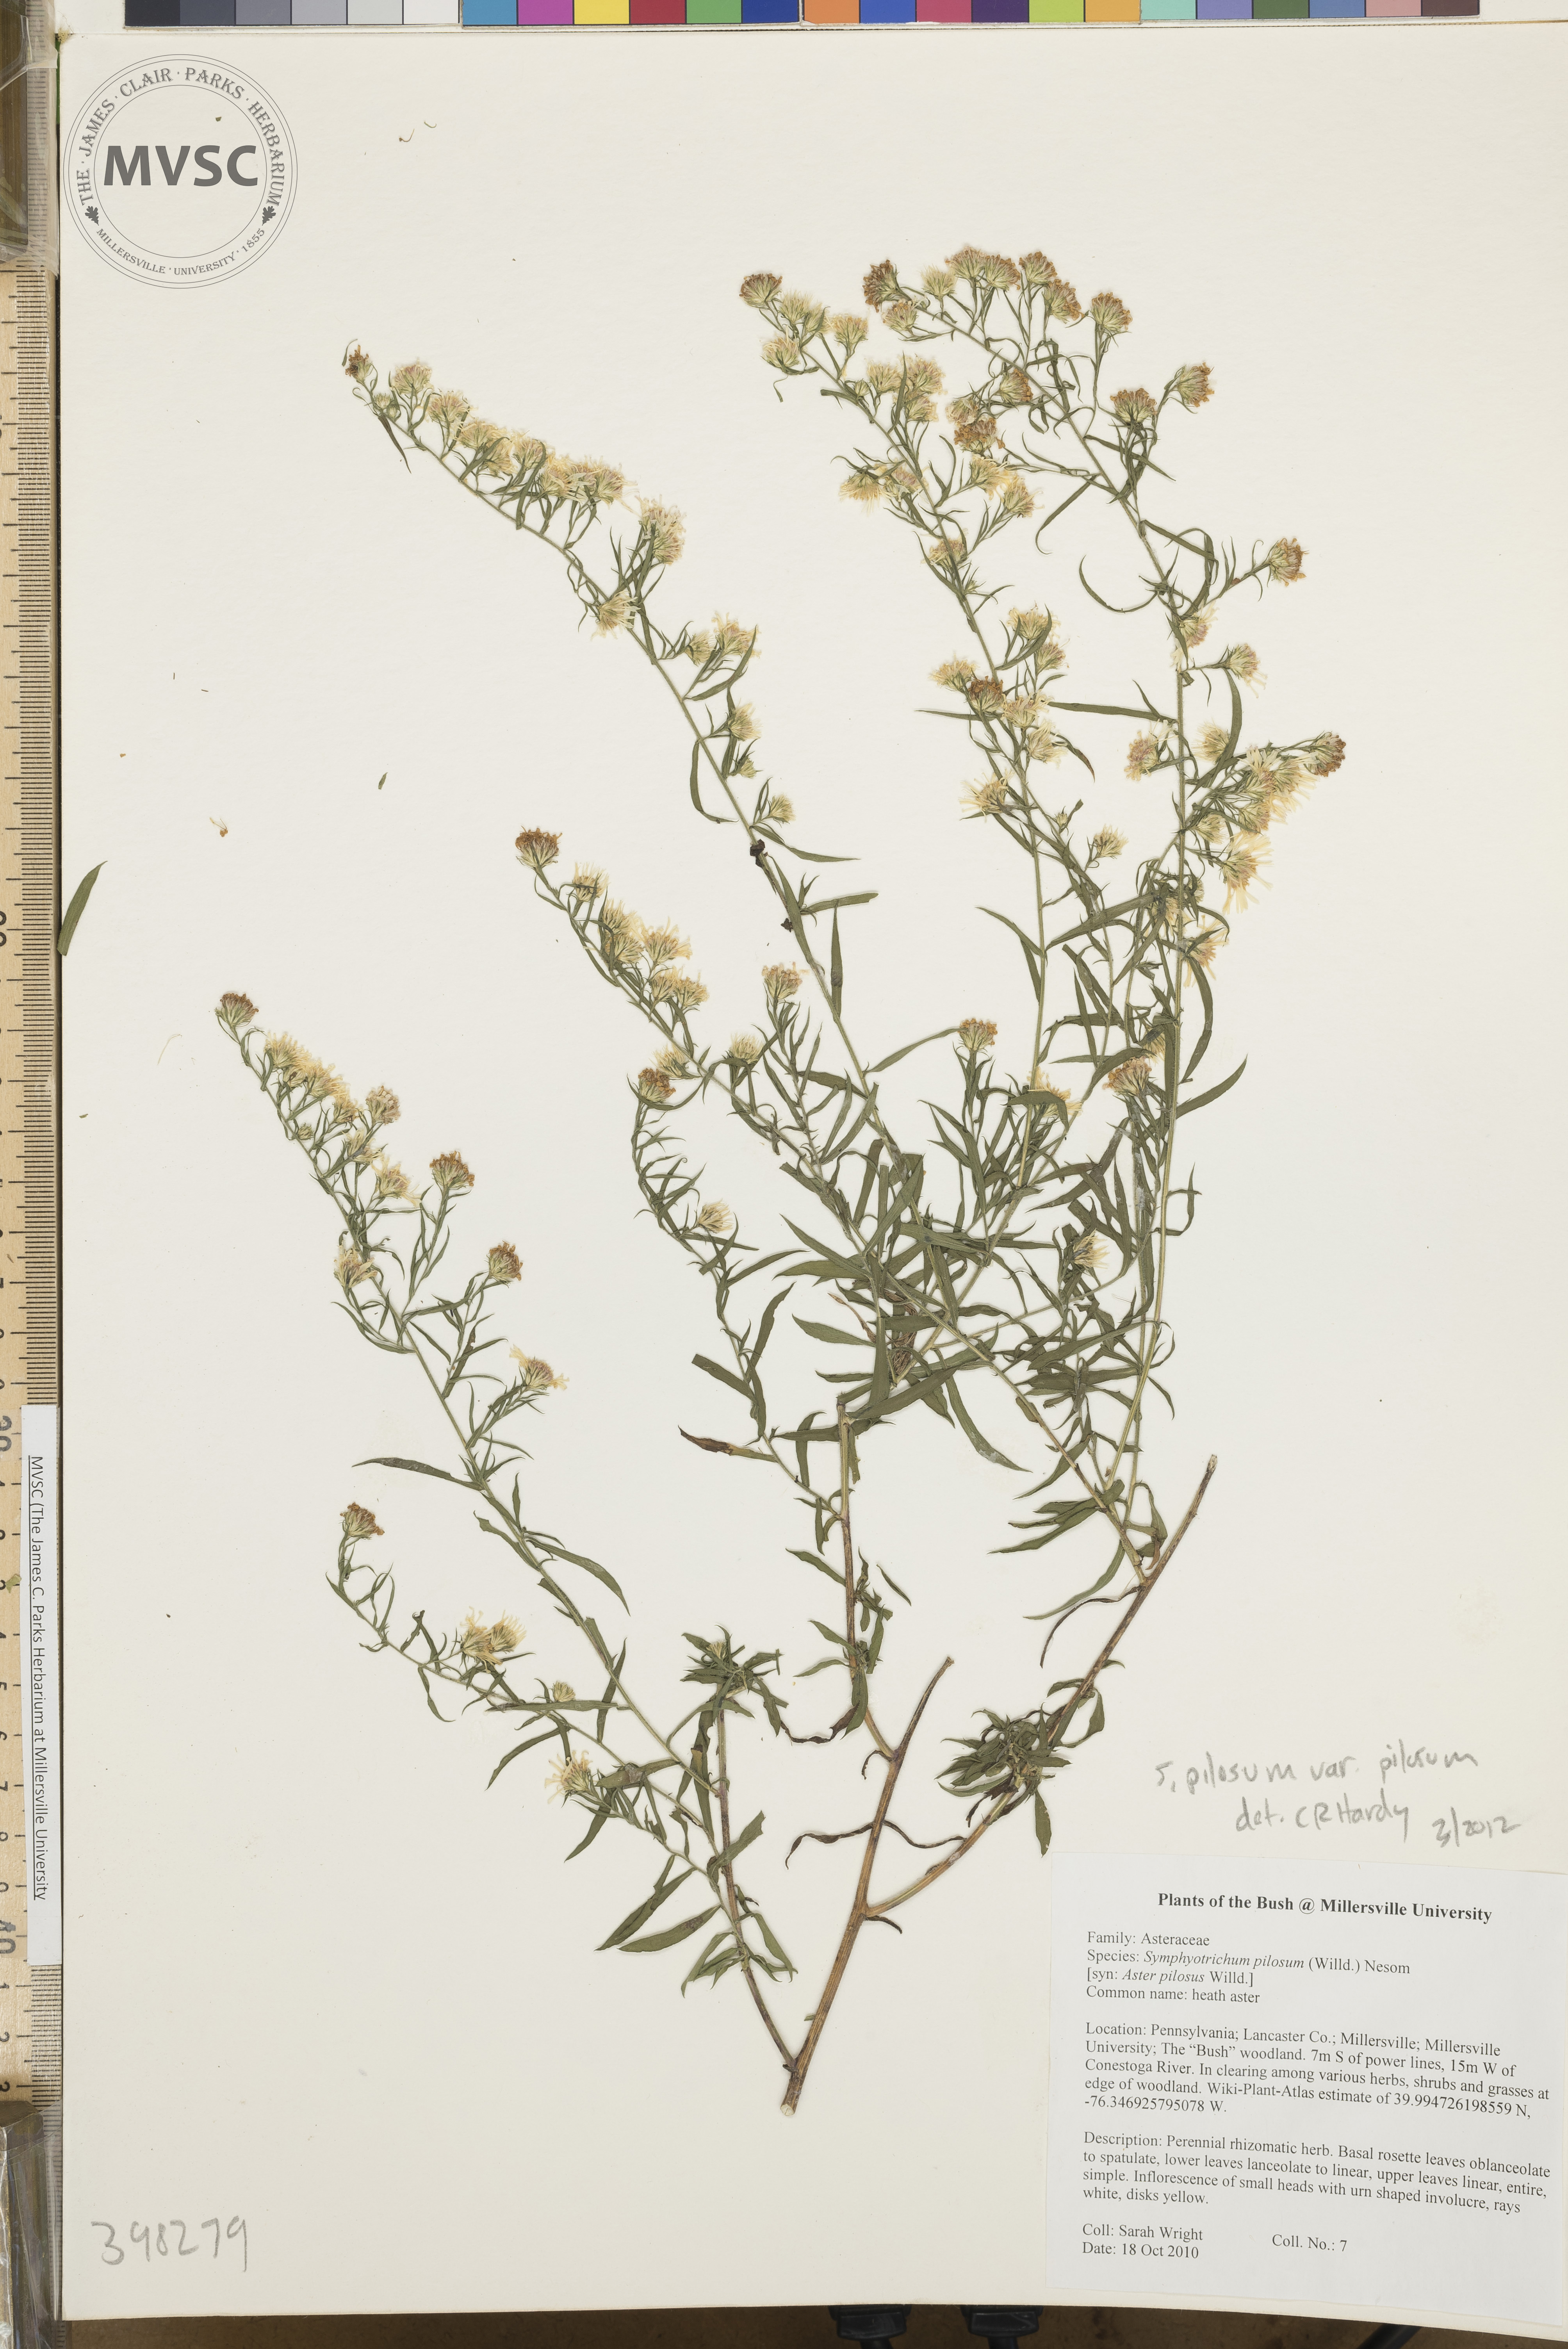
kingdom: Plantae
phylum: Tracheophyta
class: Magnoliopsida
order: Asterales
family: Asteraceae
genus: Symphyotrichum
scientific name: Symphyotrichum pilosum
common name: Late purple aster
